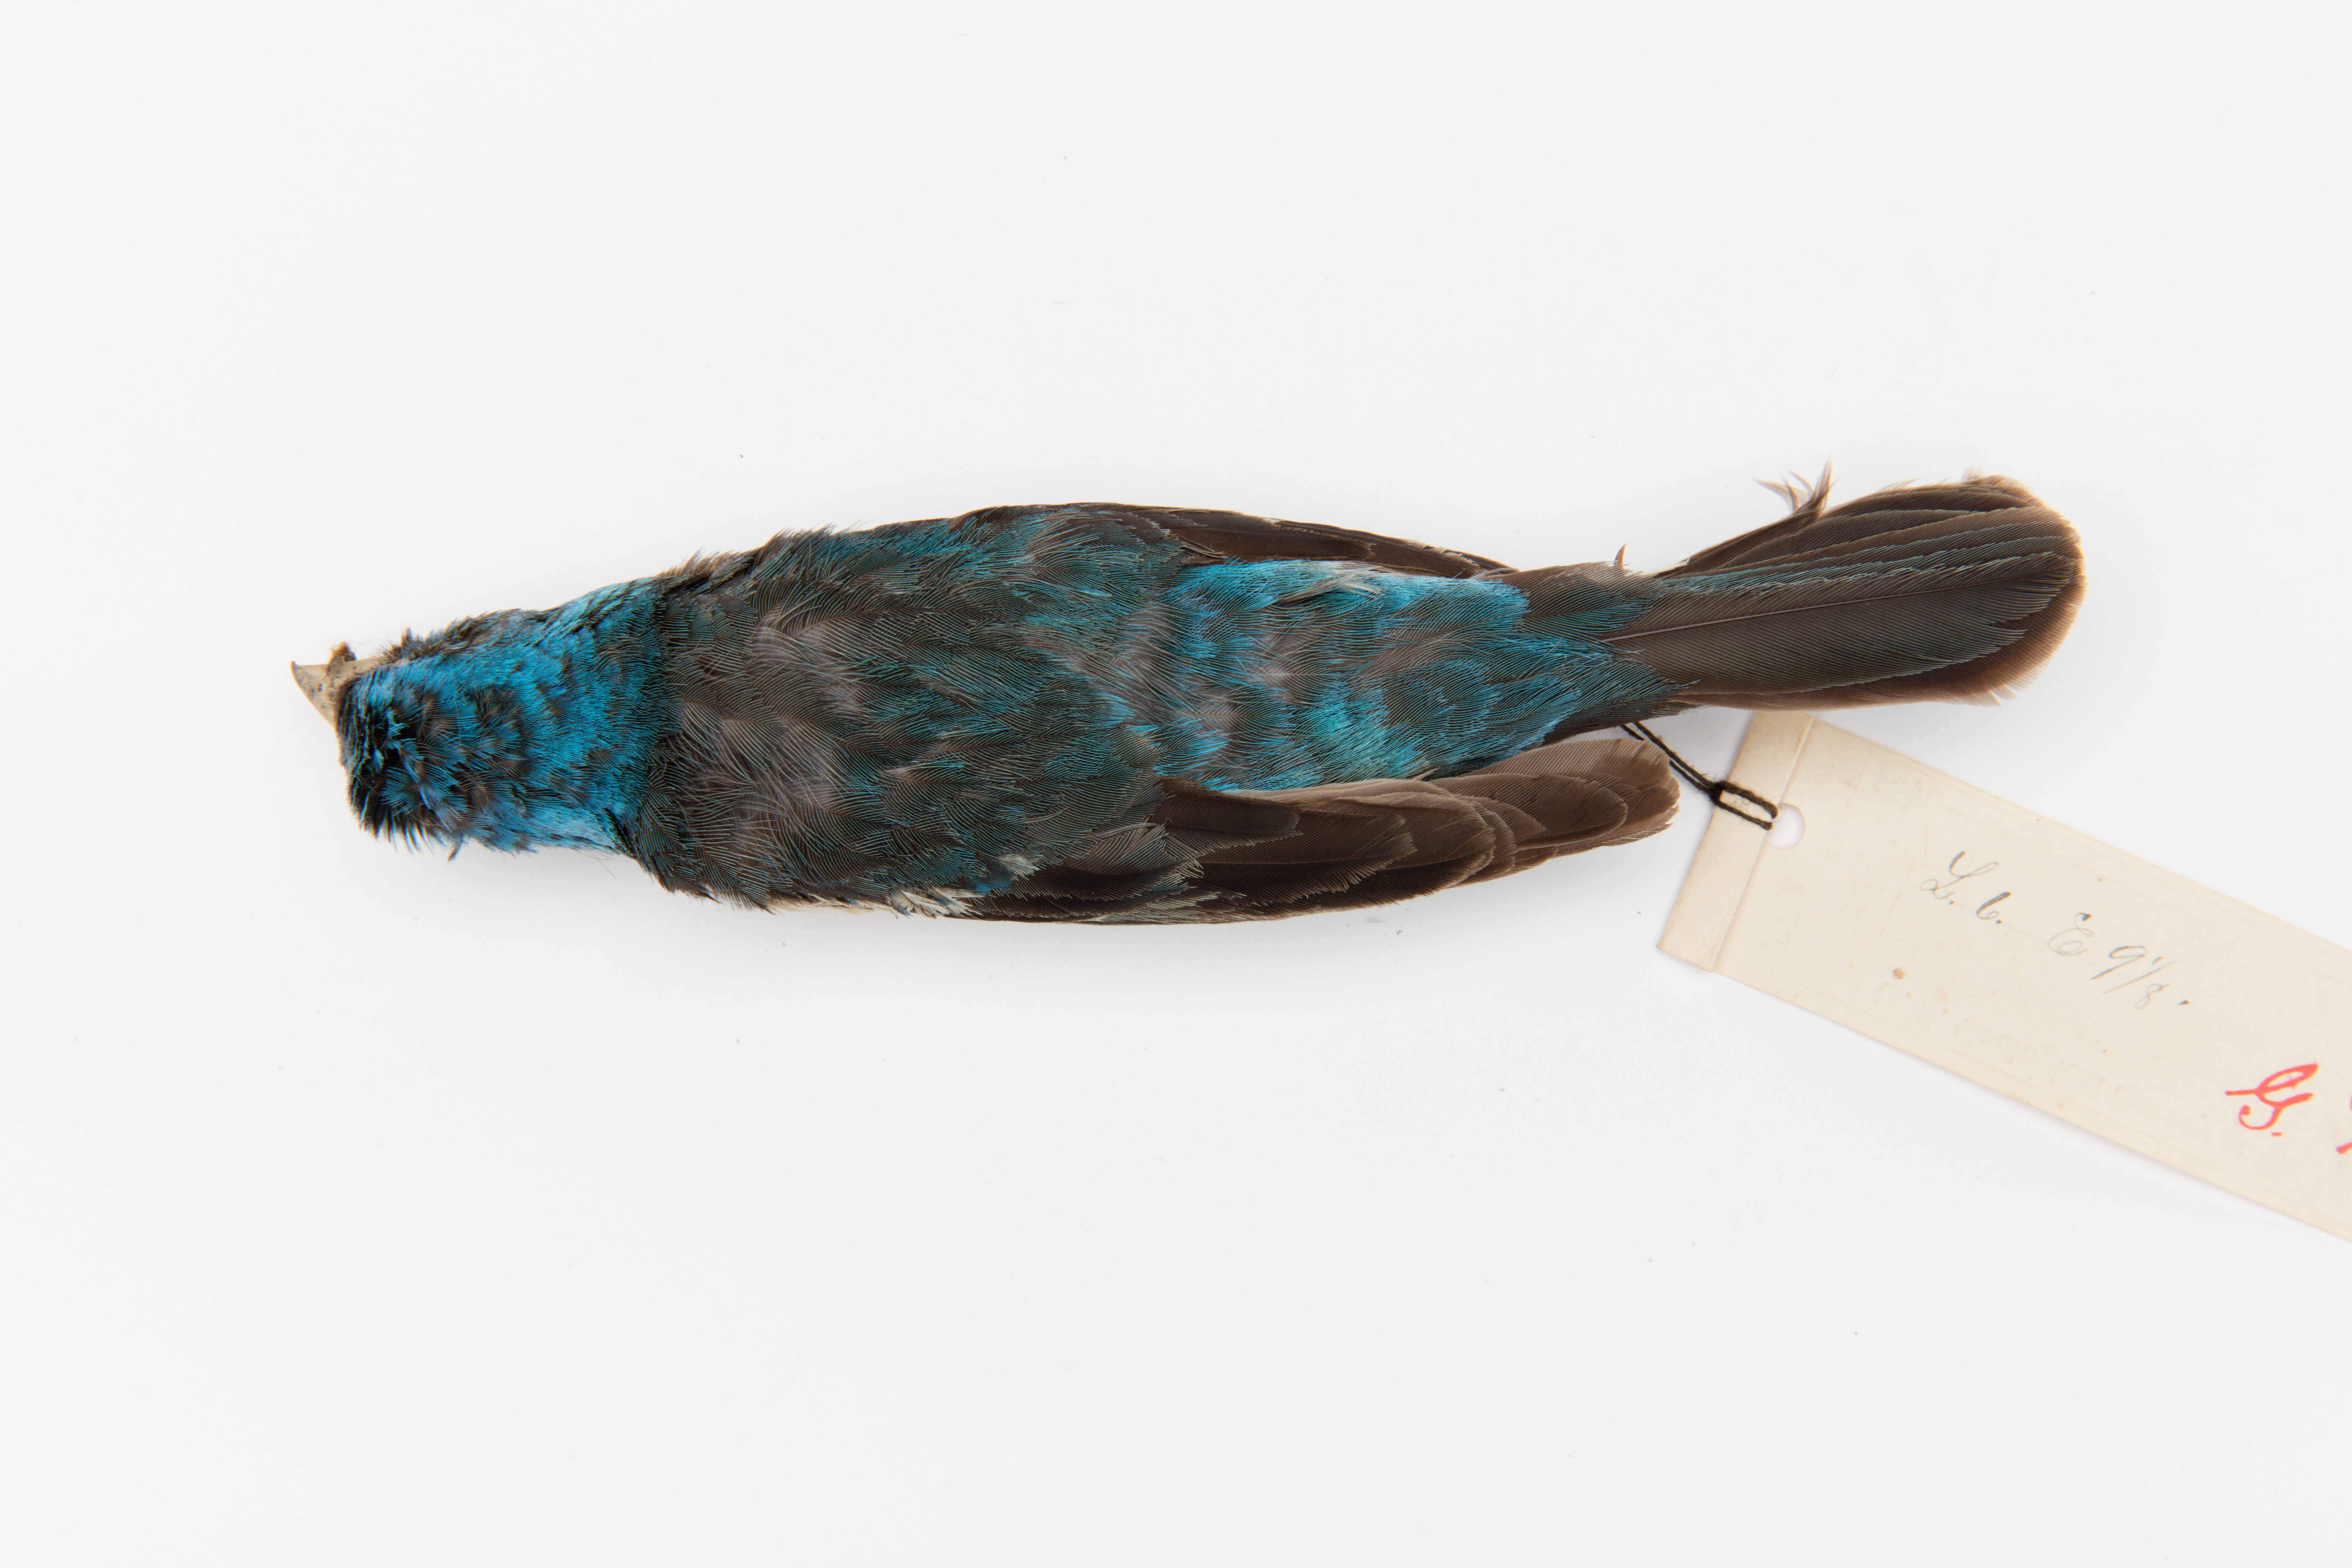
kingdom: Animalia
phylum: Chordata
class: Aves
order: Passeriformes
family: Cardinalidae
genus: Passerina
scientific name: Passerina amoena
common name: Lazuli bunting
